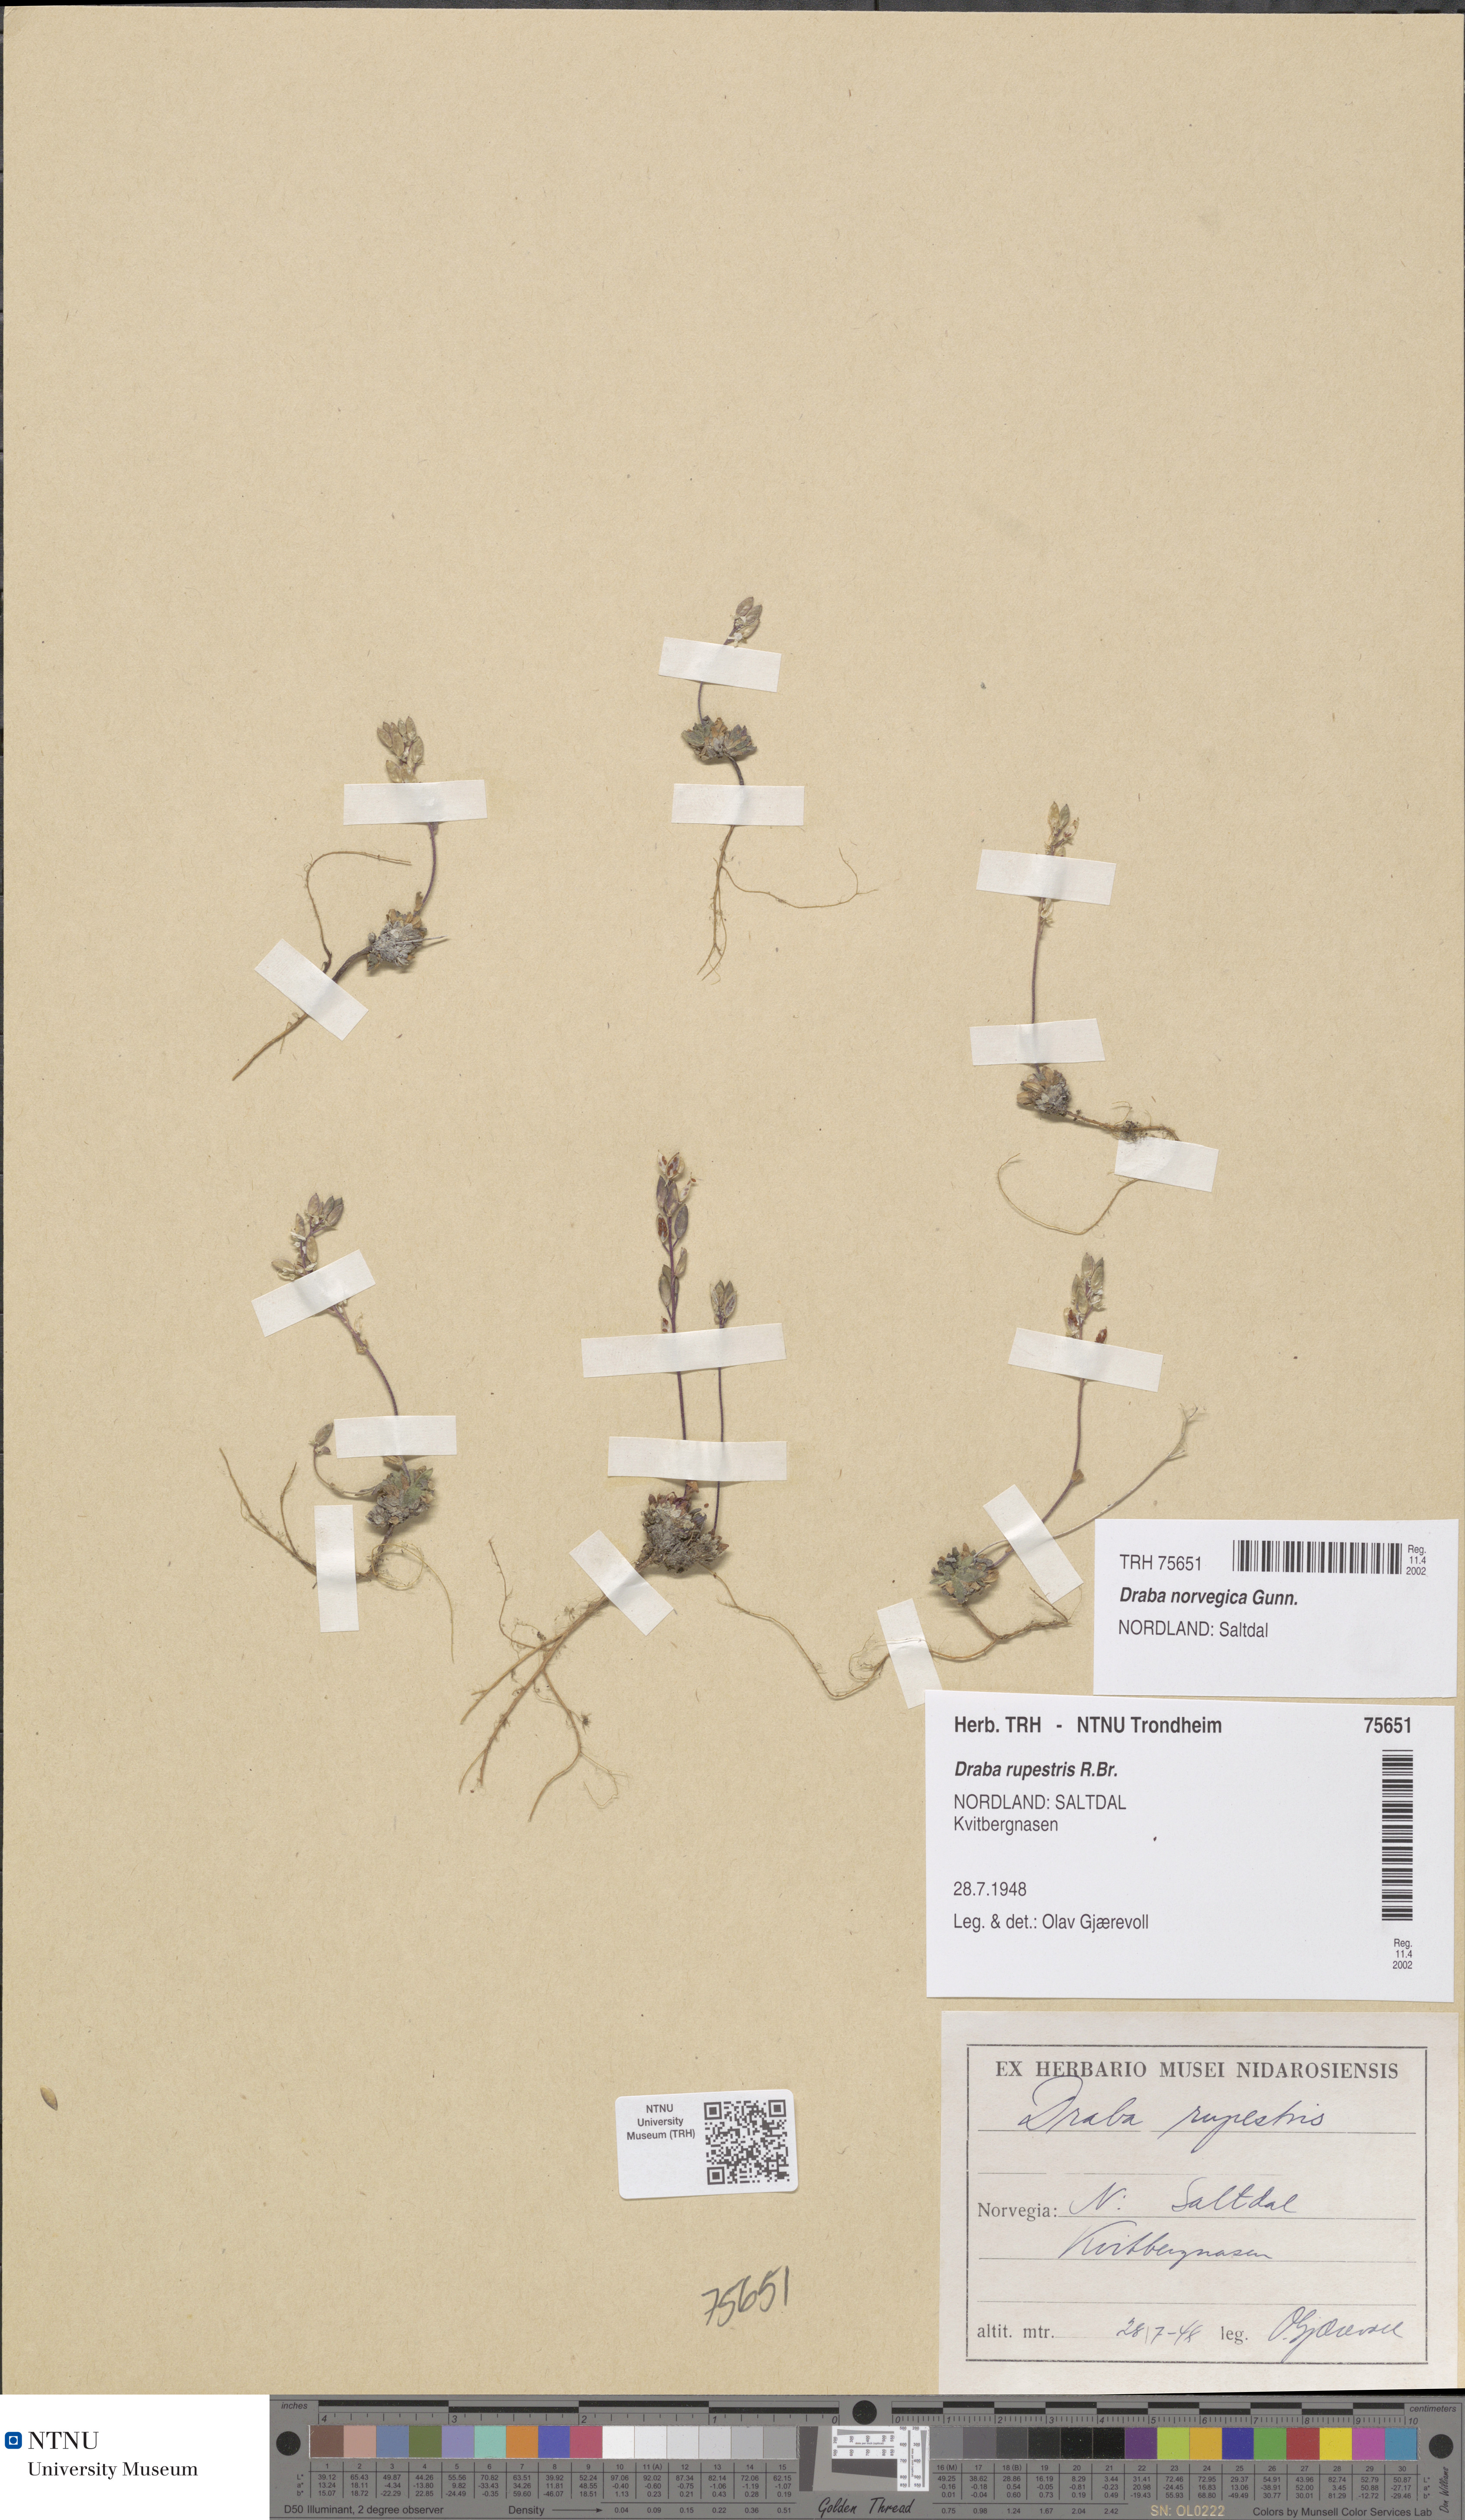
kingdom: Plantae
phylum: Tracheophyta
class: Magnoliopsida
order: Brassicales
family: Brassicaceae
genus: Draba
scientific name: Draba norvegica
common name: Rock whitlowgrass
